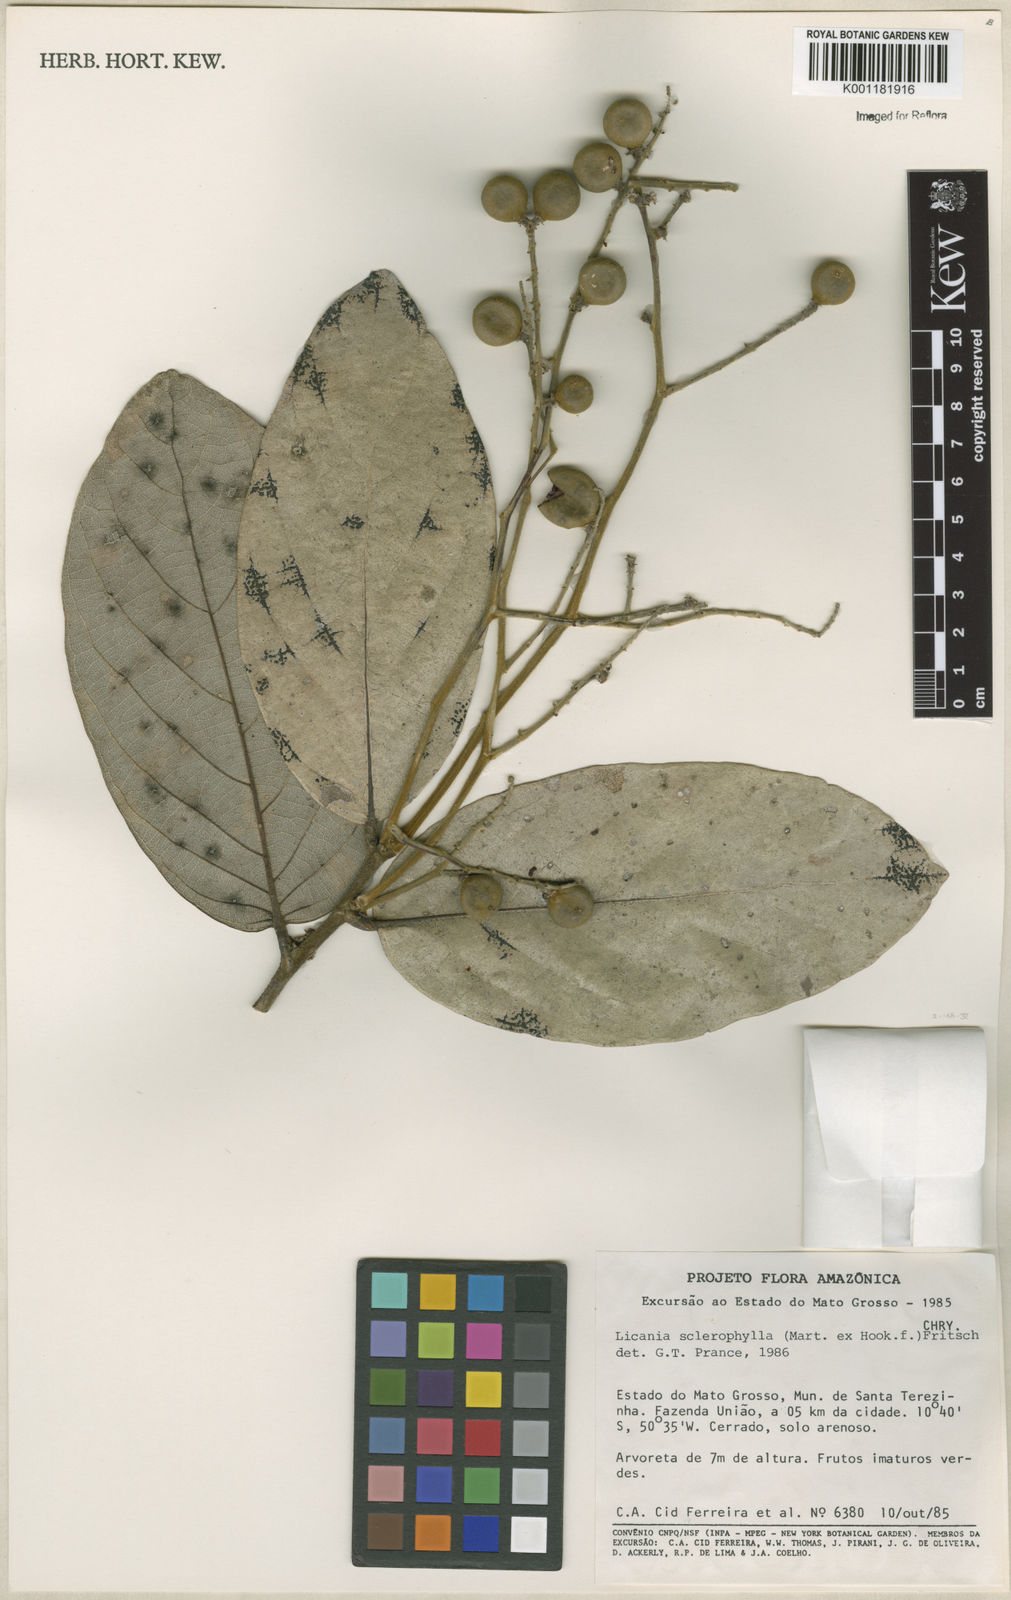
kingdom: Plantae
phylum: Tracheophyta
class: Magnoliopsida
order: Malpighiales
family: Chrysobalanaceae
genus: Leptobalanus
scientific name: Leptobalanus sclerophyllus
